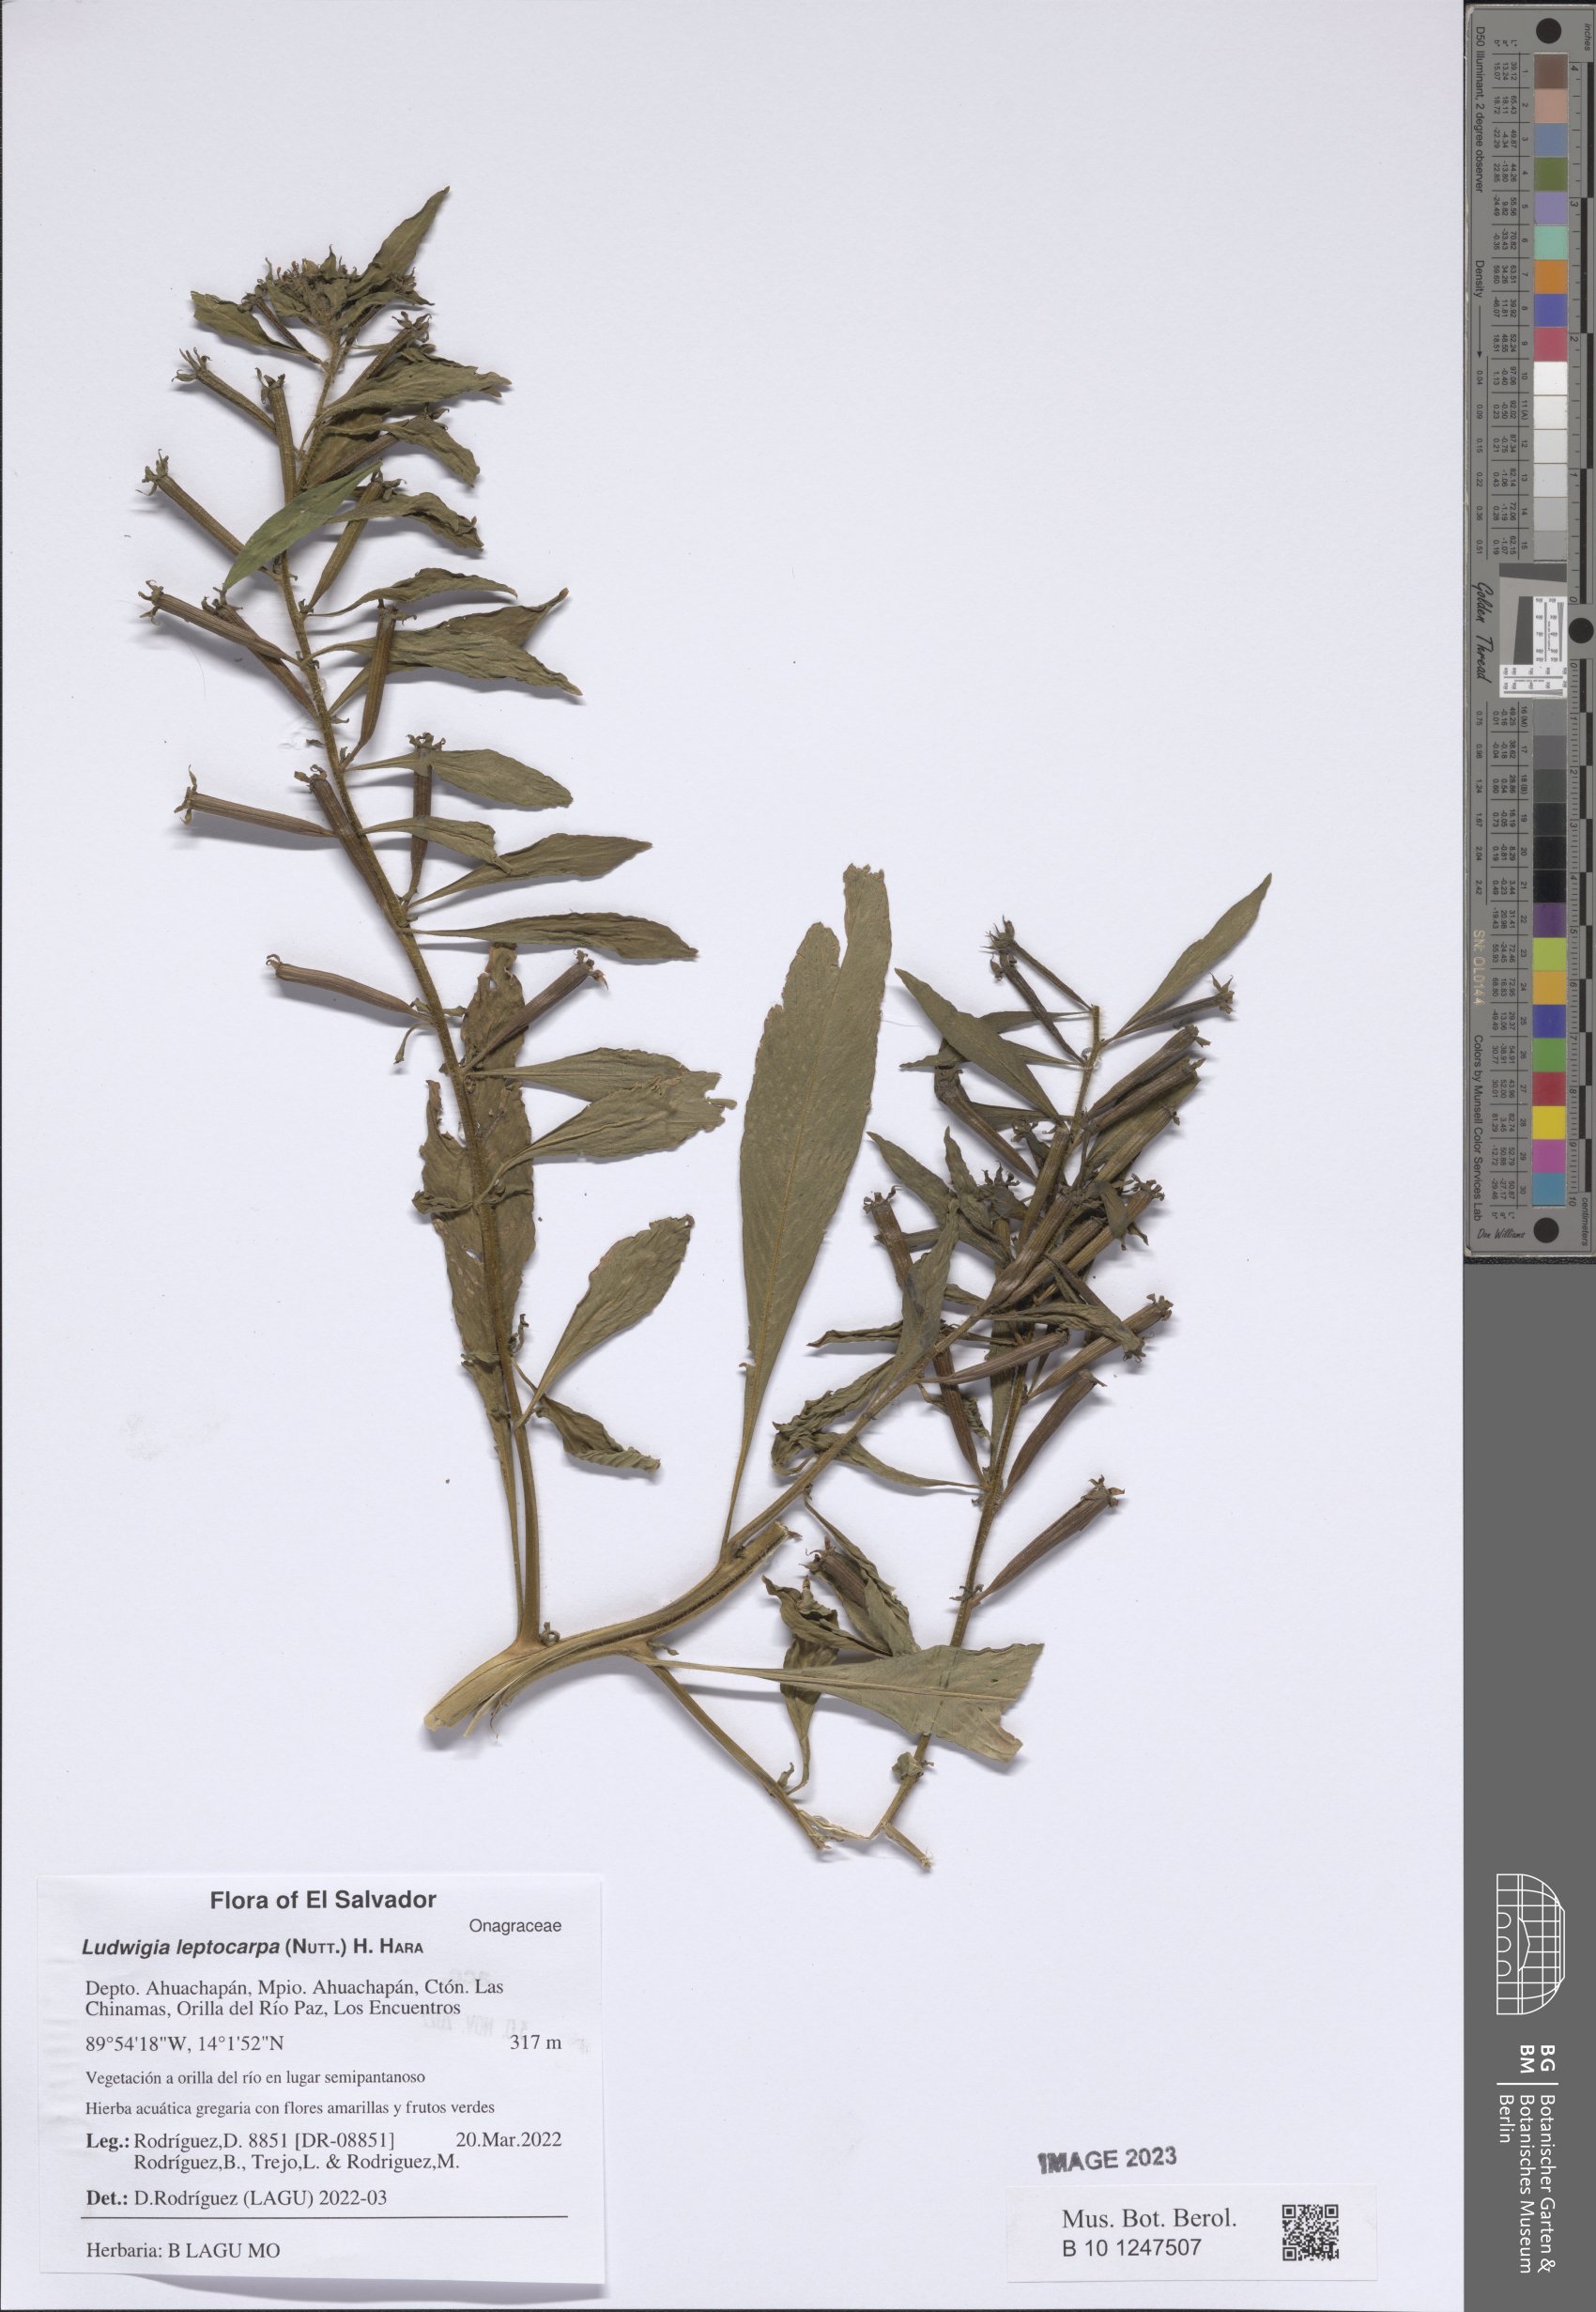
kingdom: Plantae
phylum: Tracheophyta
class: Magnoliopsida
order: Myrtales
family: Onagraceae
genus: Ludwigia
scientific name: Ludwigia leptocarpa
